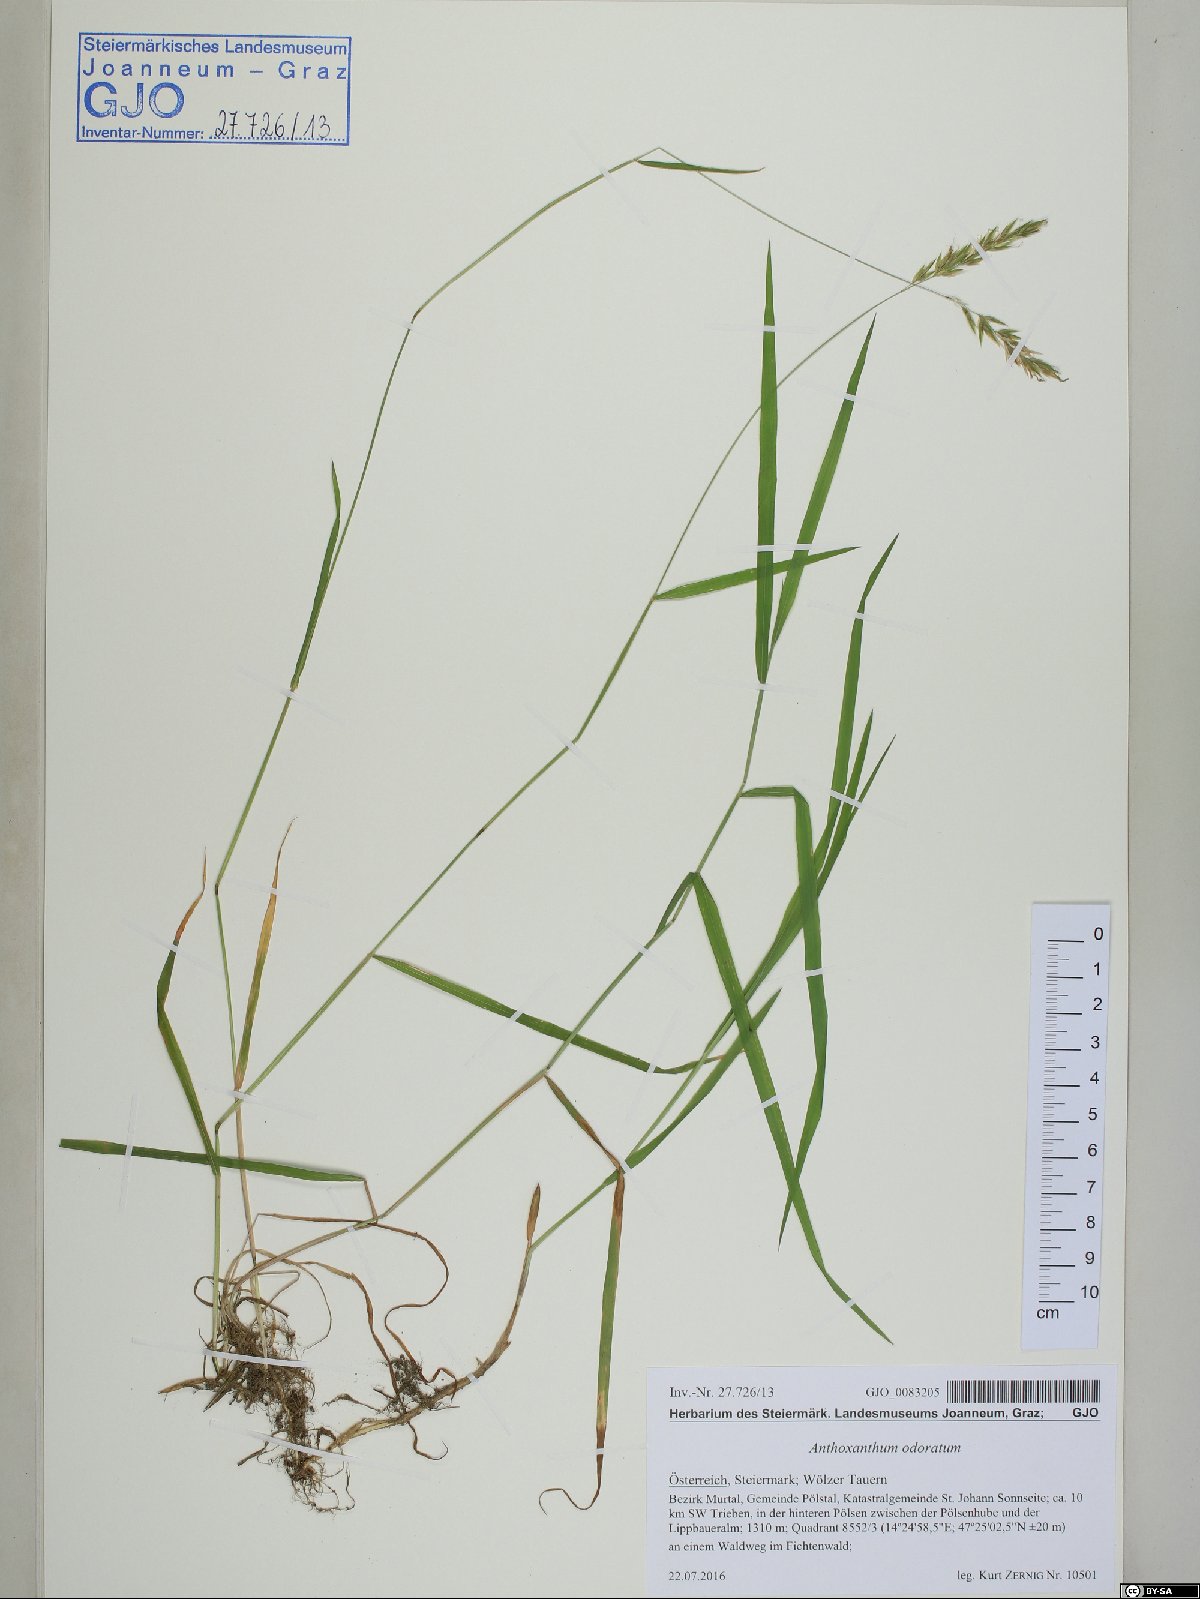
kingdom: Plantae
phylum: Tracheophyta
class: Liliopsida
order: Poales
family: Poaceae
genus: Anthoxanthum
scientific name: Anthoxanthum odoratum
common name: Sweet vernalgrass
